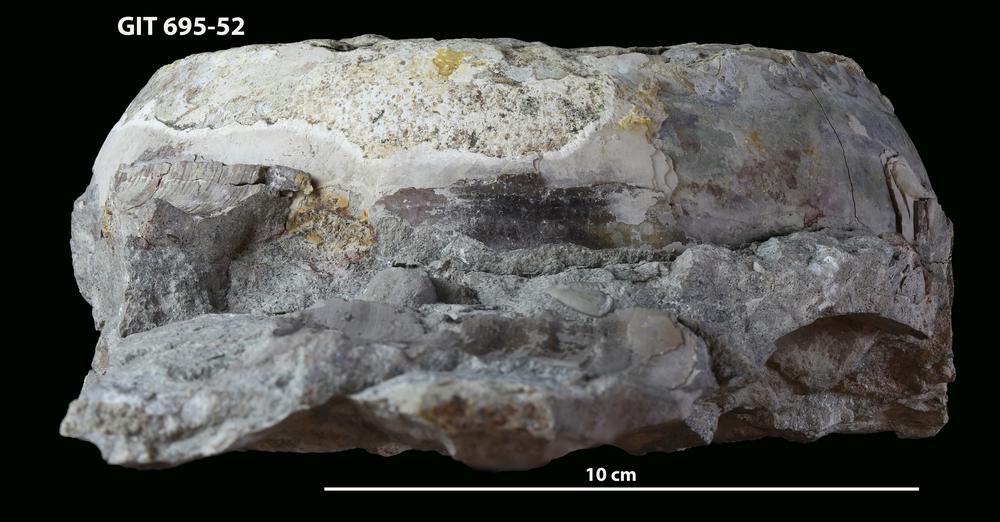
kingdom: Animalia
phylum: Mollusca
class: Cephalopoda
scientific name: Cephalopoda
